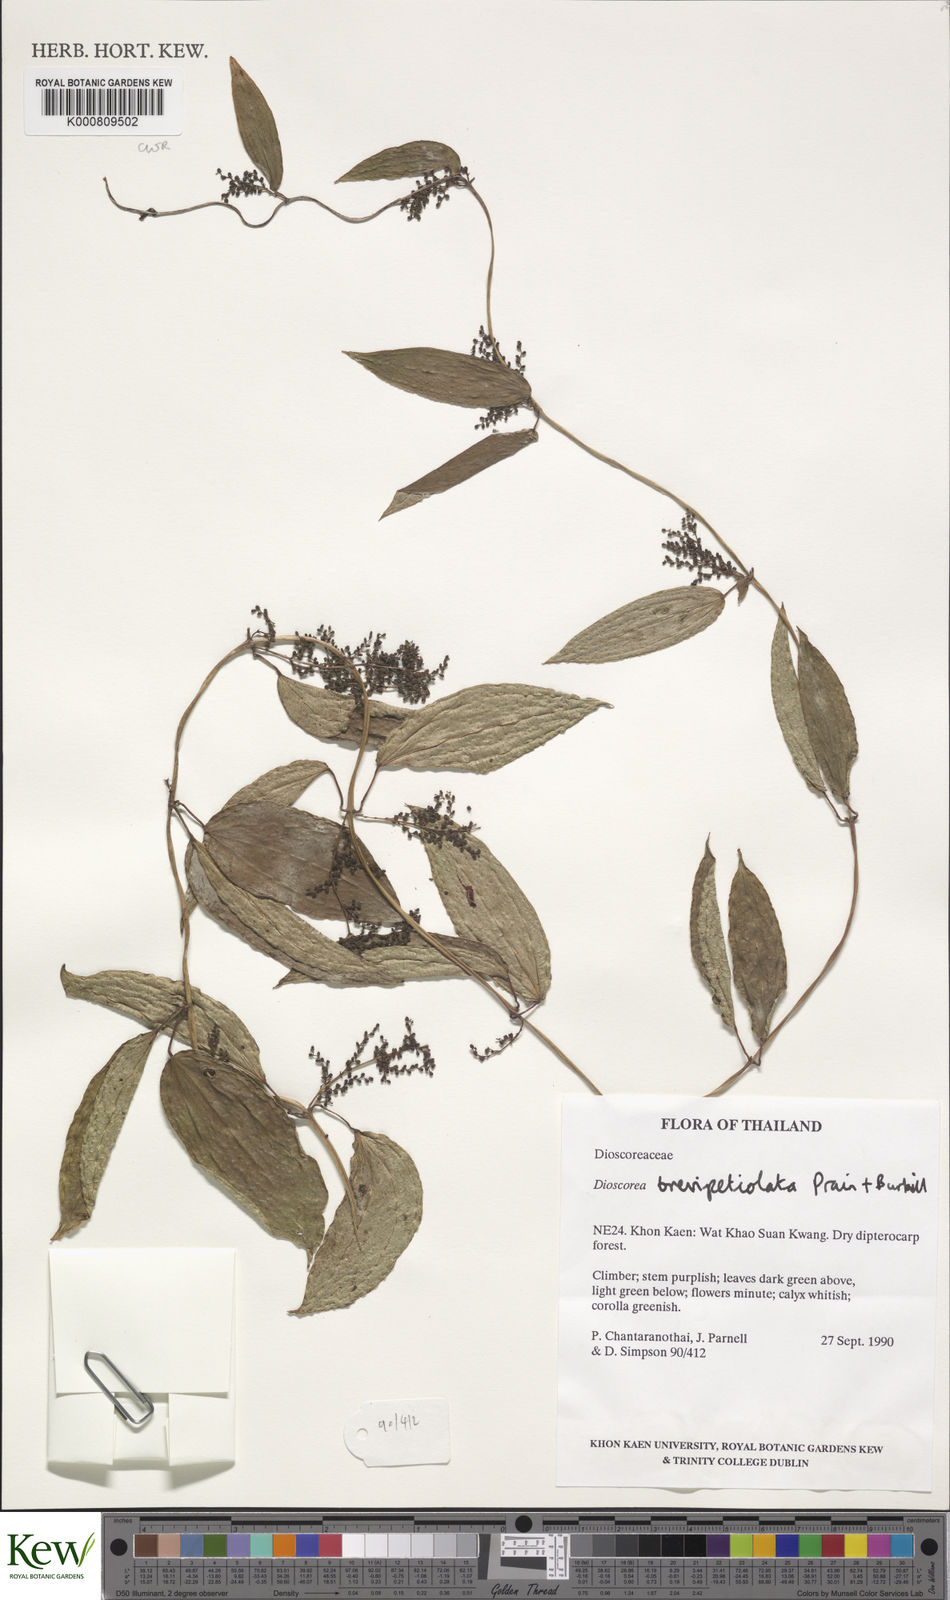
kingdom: Plantae
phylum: Tracheophyta
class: Liliopsida
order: Dioscoreales
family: Dioscoreaceae
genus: Dioscorea
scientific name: Dioscorea brevipetiolata
